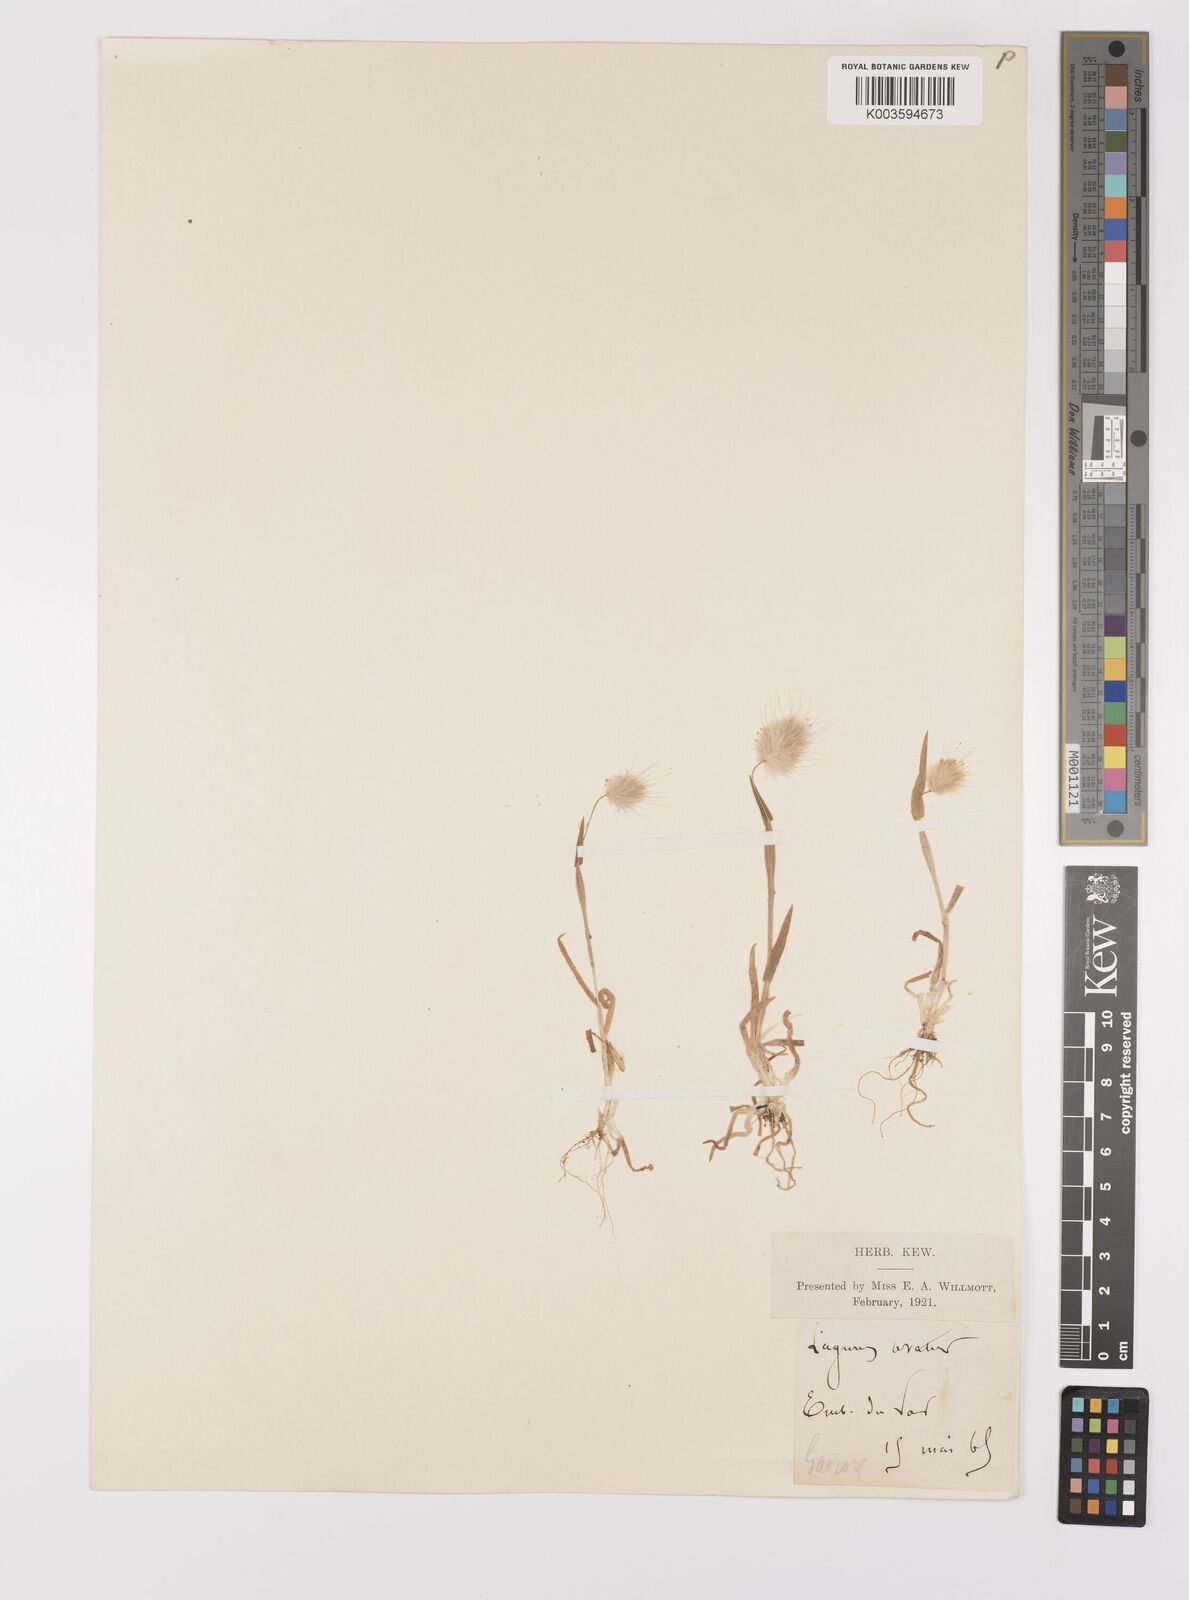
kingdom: Plantae
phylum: Tracheophyta
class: Liliopsida
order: Poales
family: Poaceae
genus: Lagurus
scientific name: Lagurus ovatus
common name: Hare's-tail
